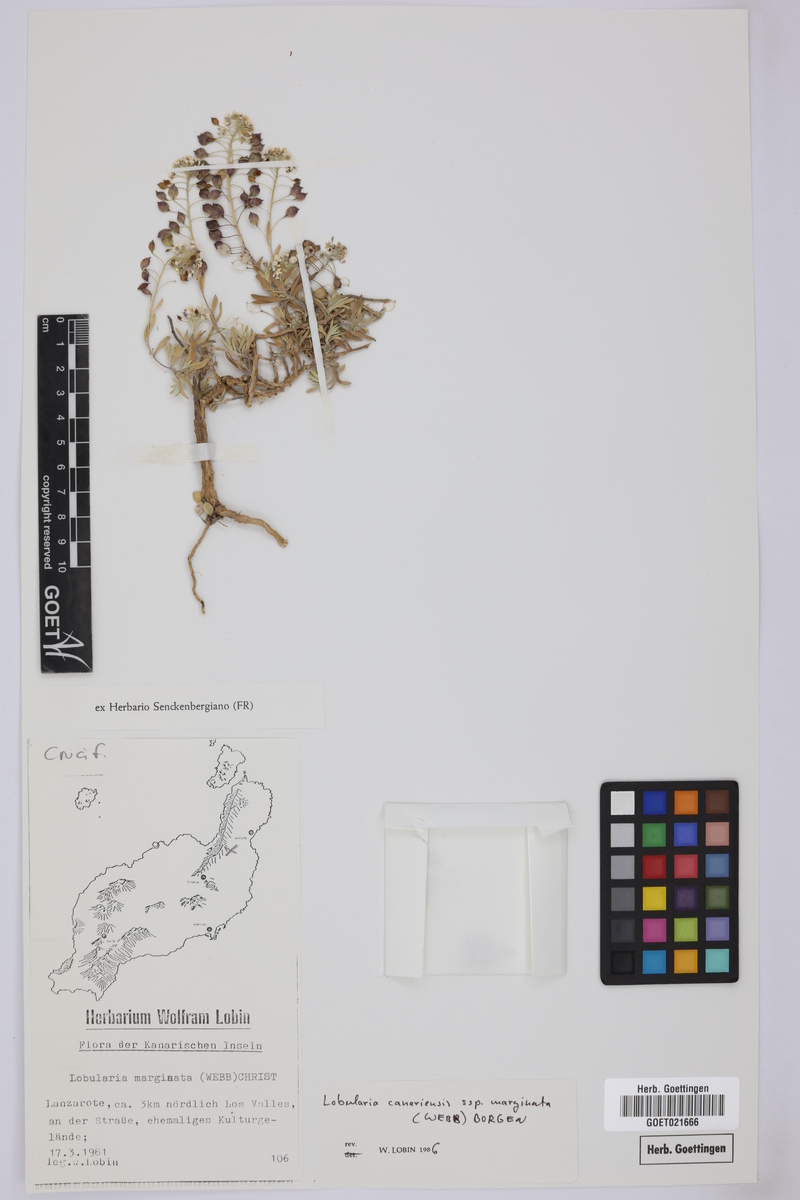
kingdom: Plantae
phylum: Tracheophyta
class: Magnoliopsida
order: Brassicales
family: Brassicaceae
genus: Lobularia
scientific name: Lobularia canariensis
